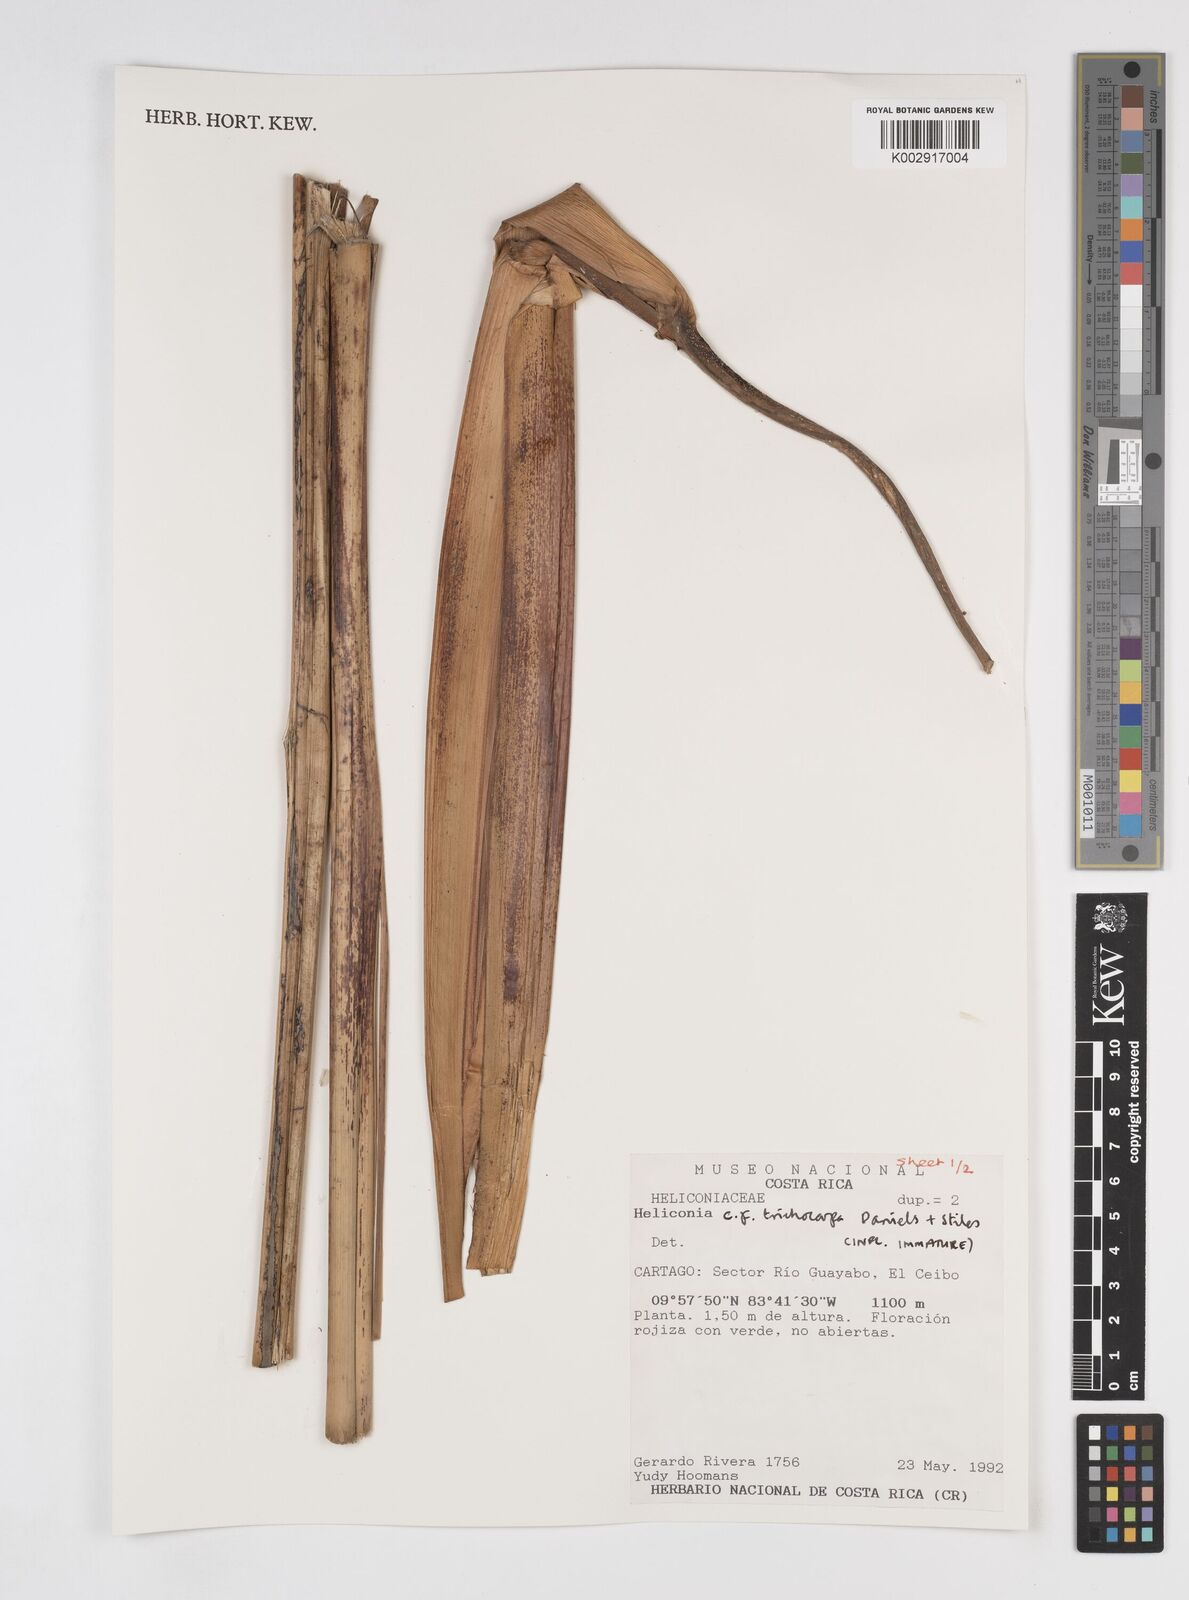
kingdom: Plantae
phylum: Tracheophyta
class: Liliopsida
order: Zingiberales
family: Heliconiaceae
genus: Heliconia
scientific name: Heliconia trichocarpa
